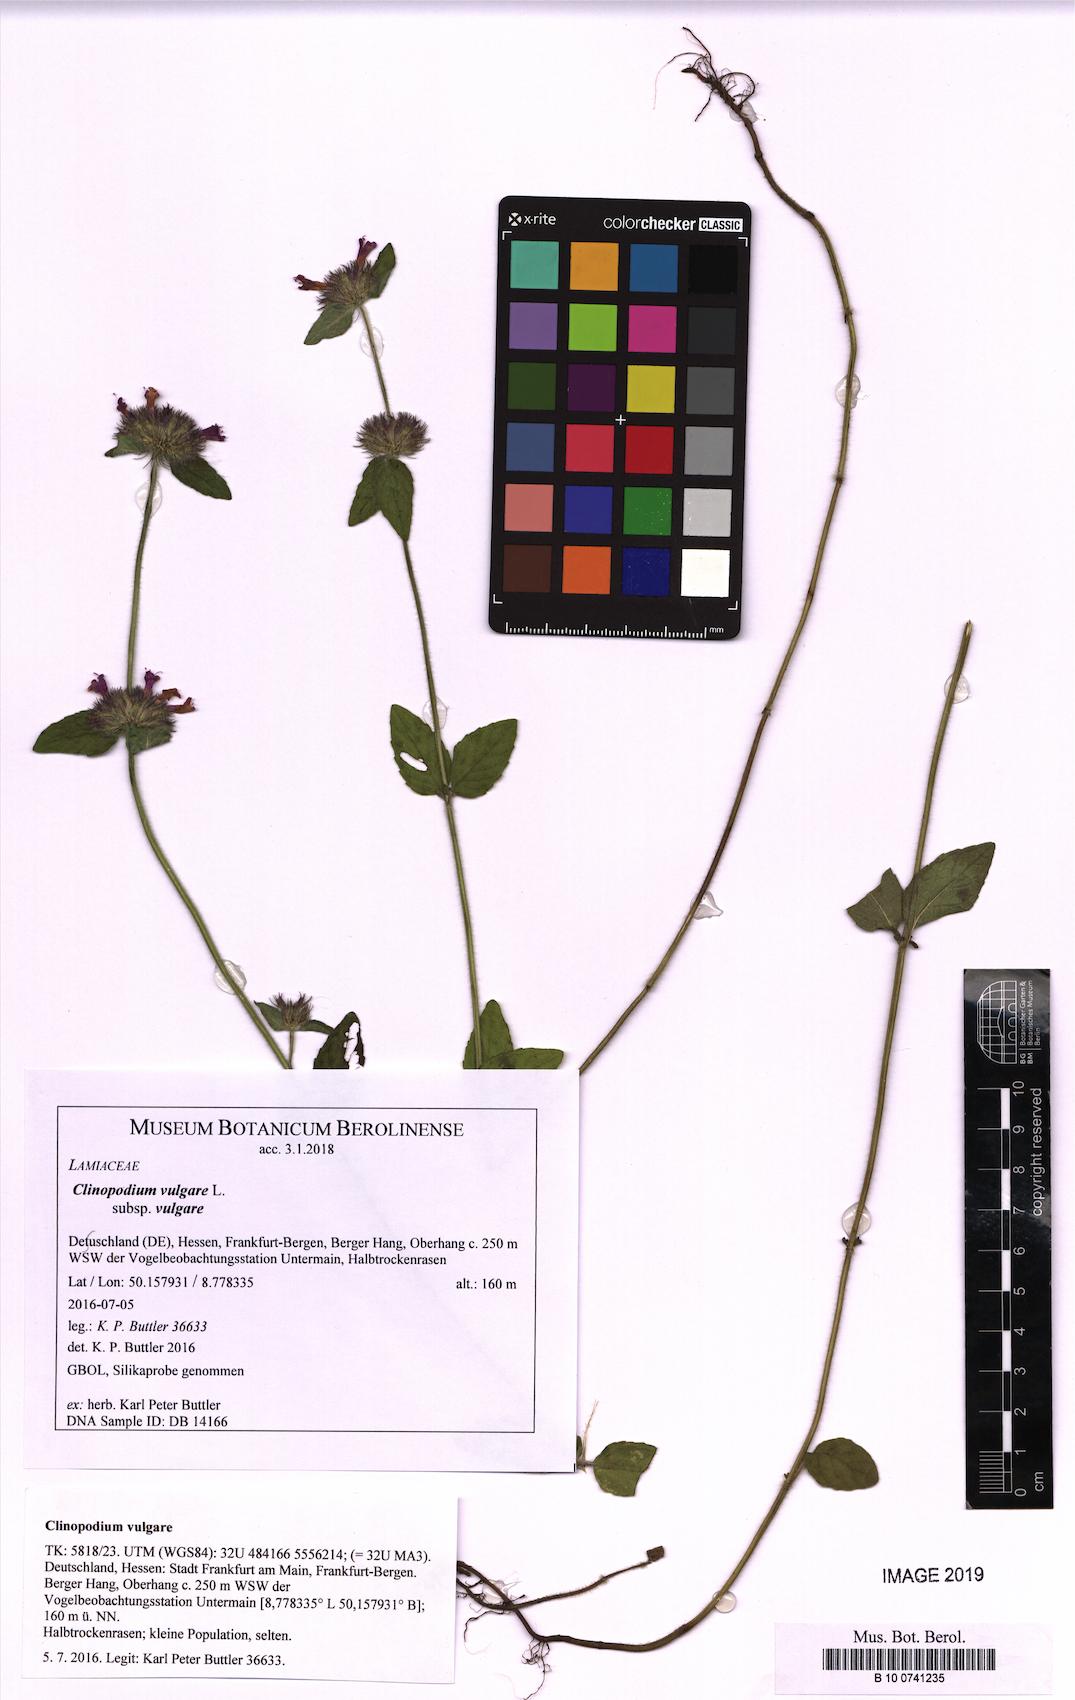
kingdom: Plantae
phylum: Tracheophyta
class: Magnoliopsida
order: Lamiales
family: Lamiaceae
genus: Clinopodium
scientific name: Clinopodium vulgare
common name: Wild basil
